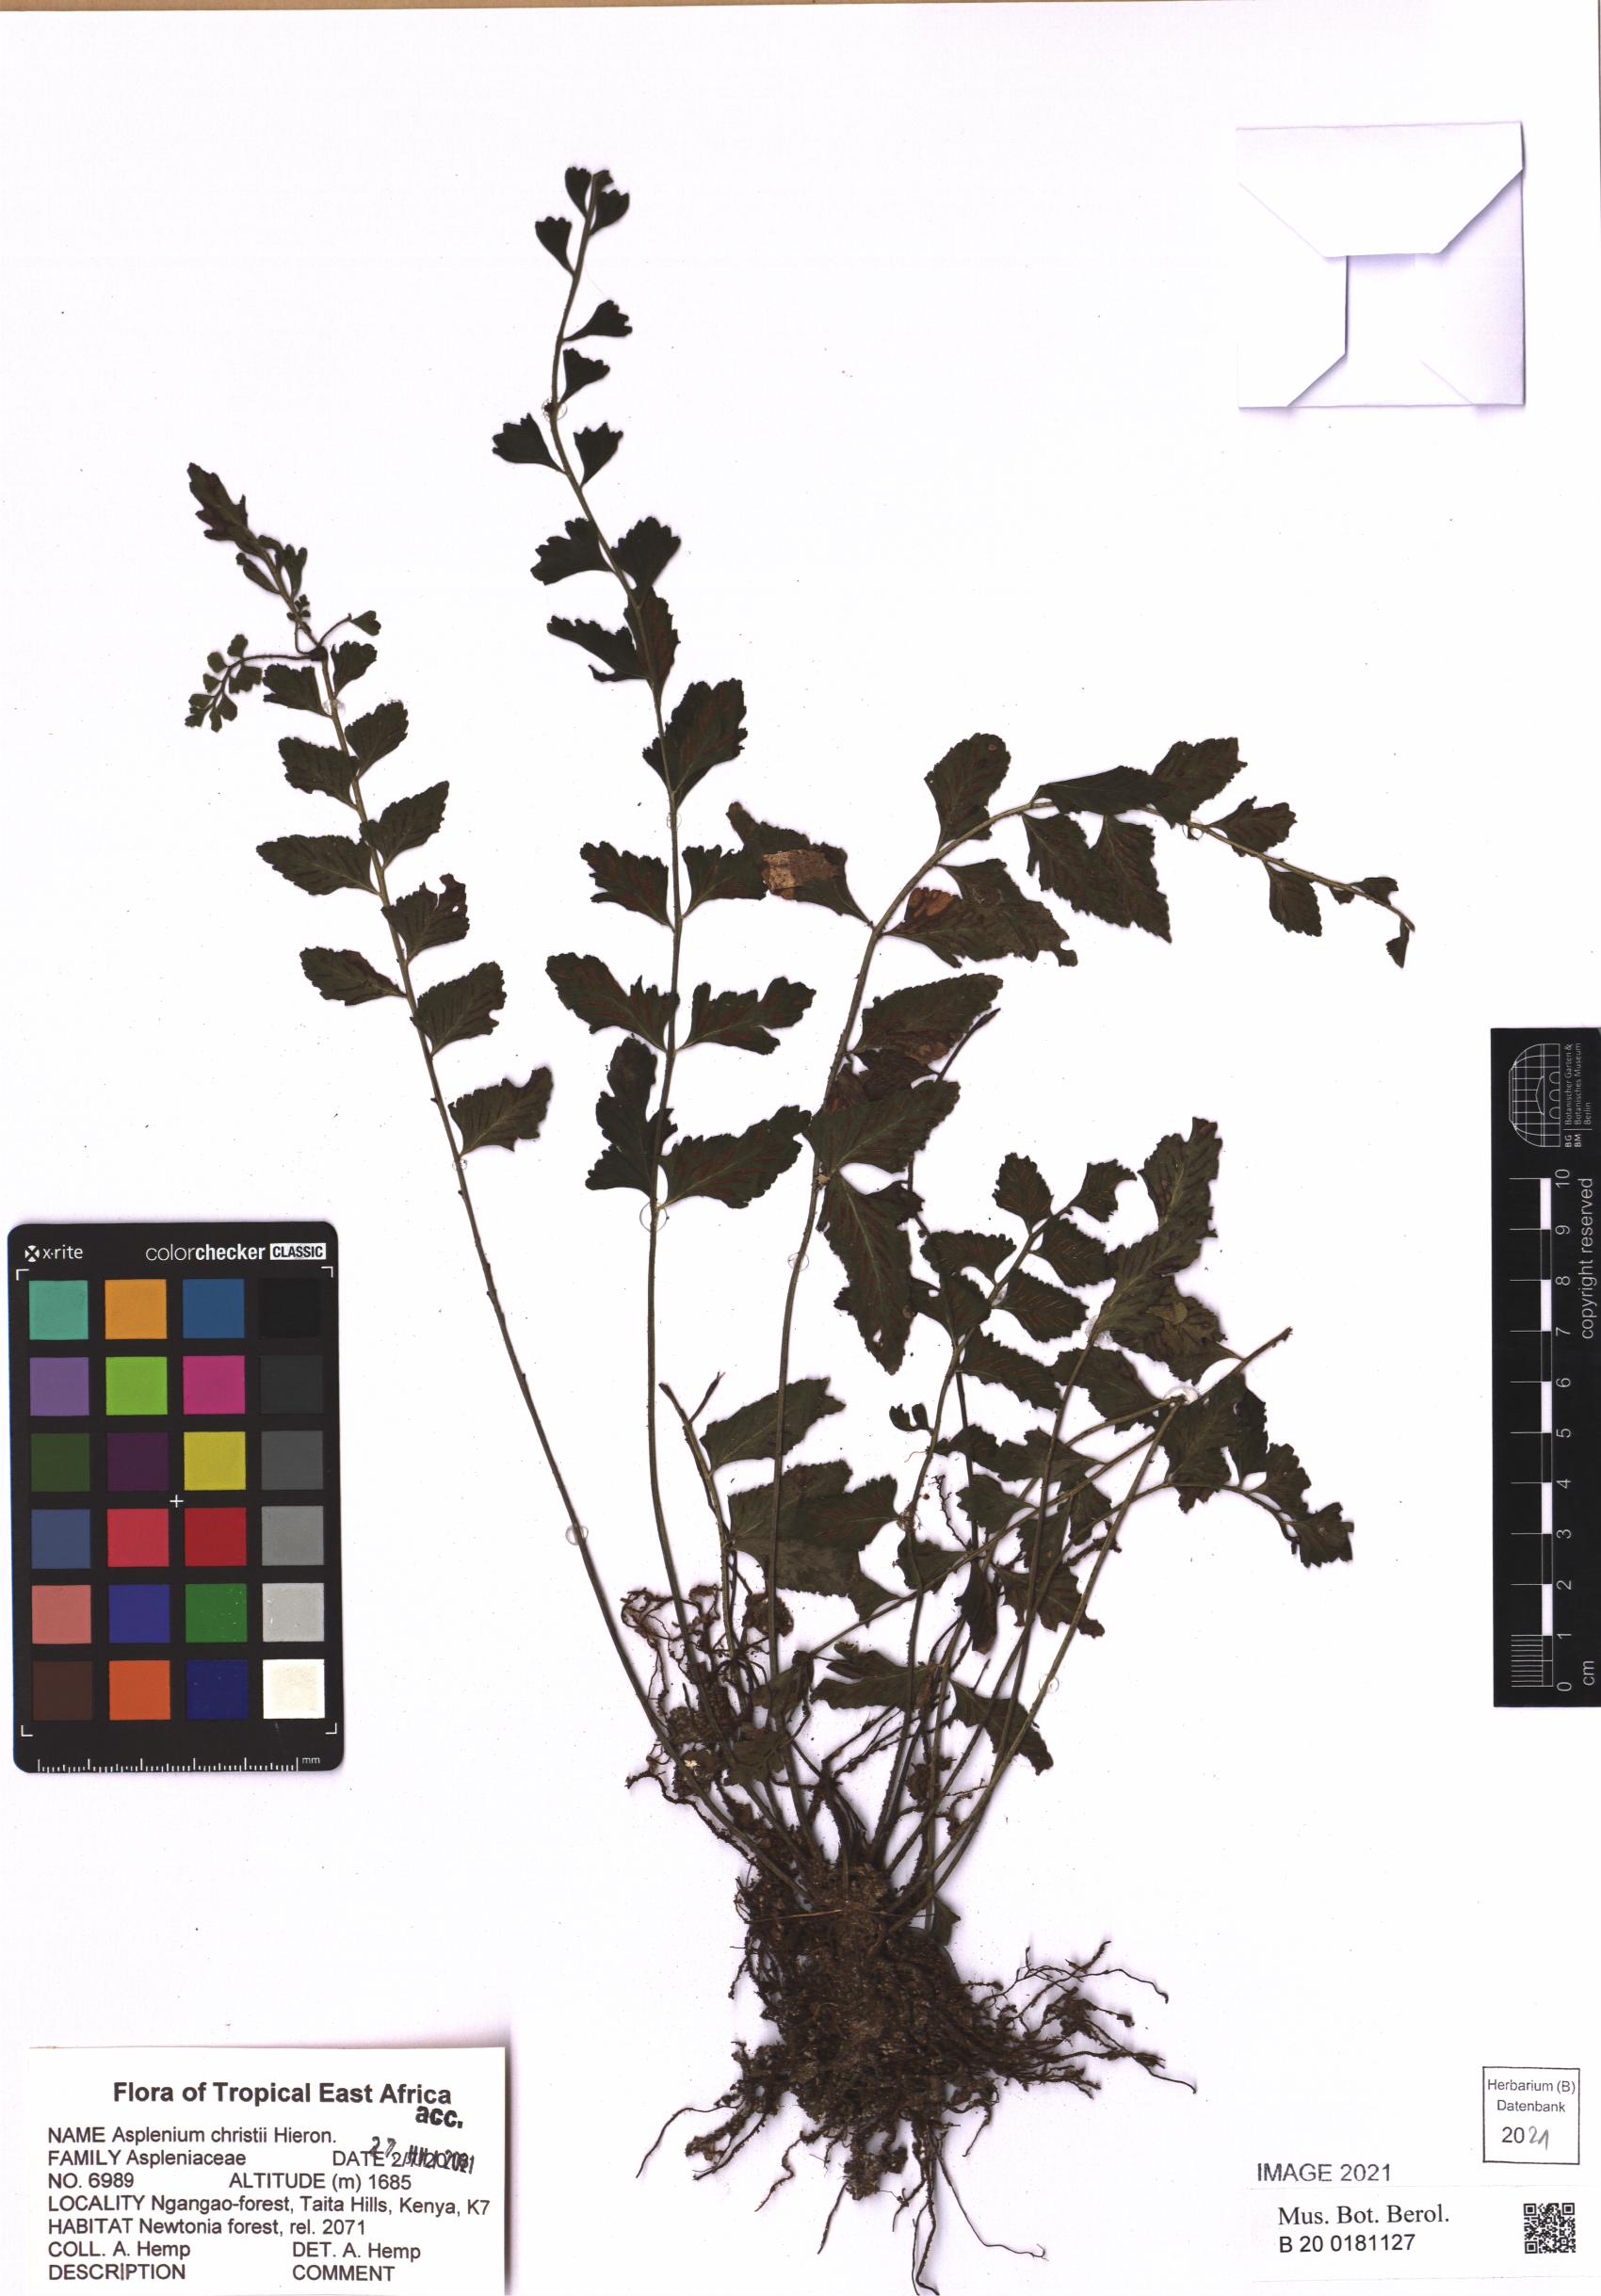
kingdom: Plantae
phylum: Tracheophyta
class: Polypodiopsida
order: Polypodiales
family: Aspleniaceae
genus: Asplenium
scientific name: Asplenium christii
